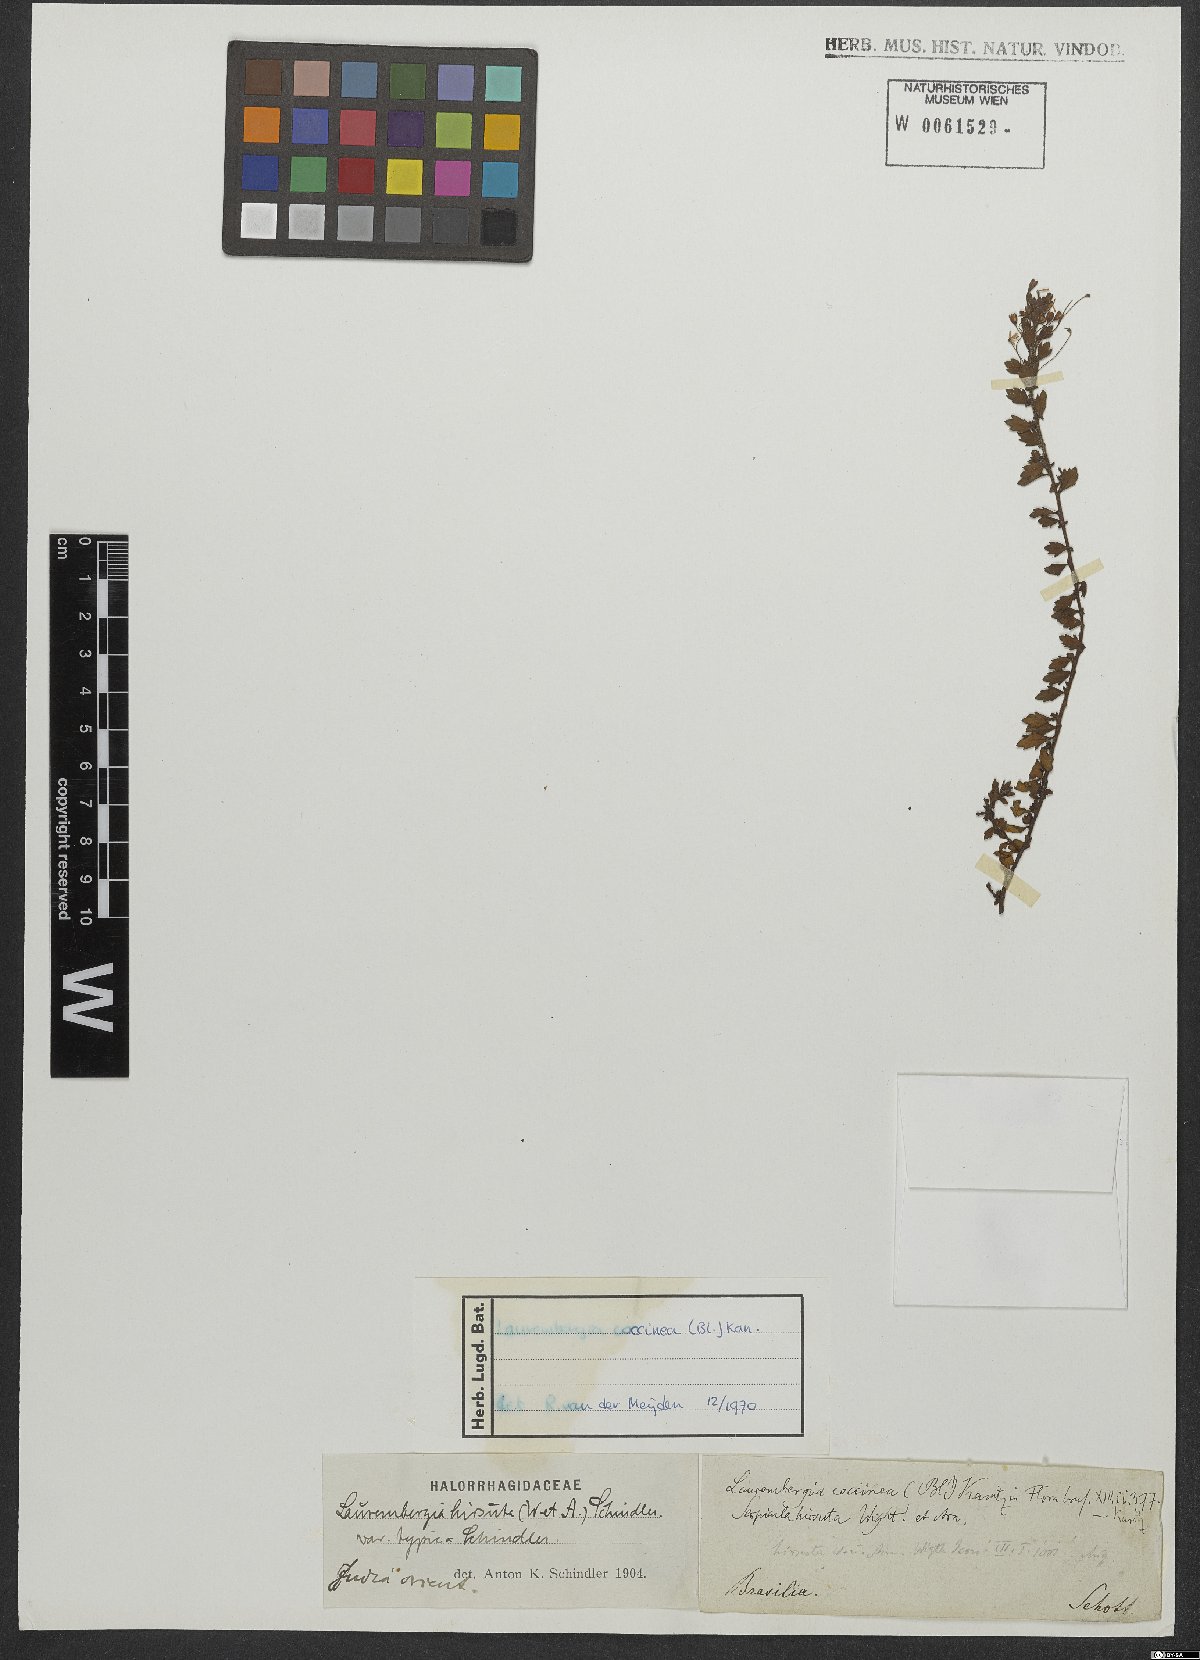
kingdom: Plantae
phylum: Tracheophyta
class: Magnoliopsida
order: Saxifragales
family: Haloragaceae
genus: Laurembergia
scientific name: Laurembergia coccinea
